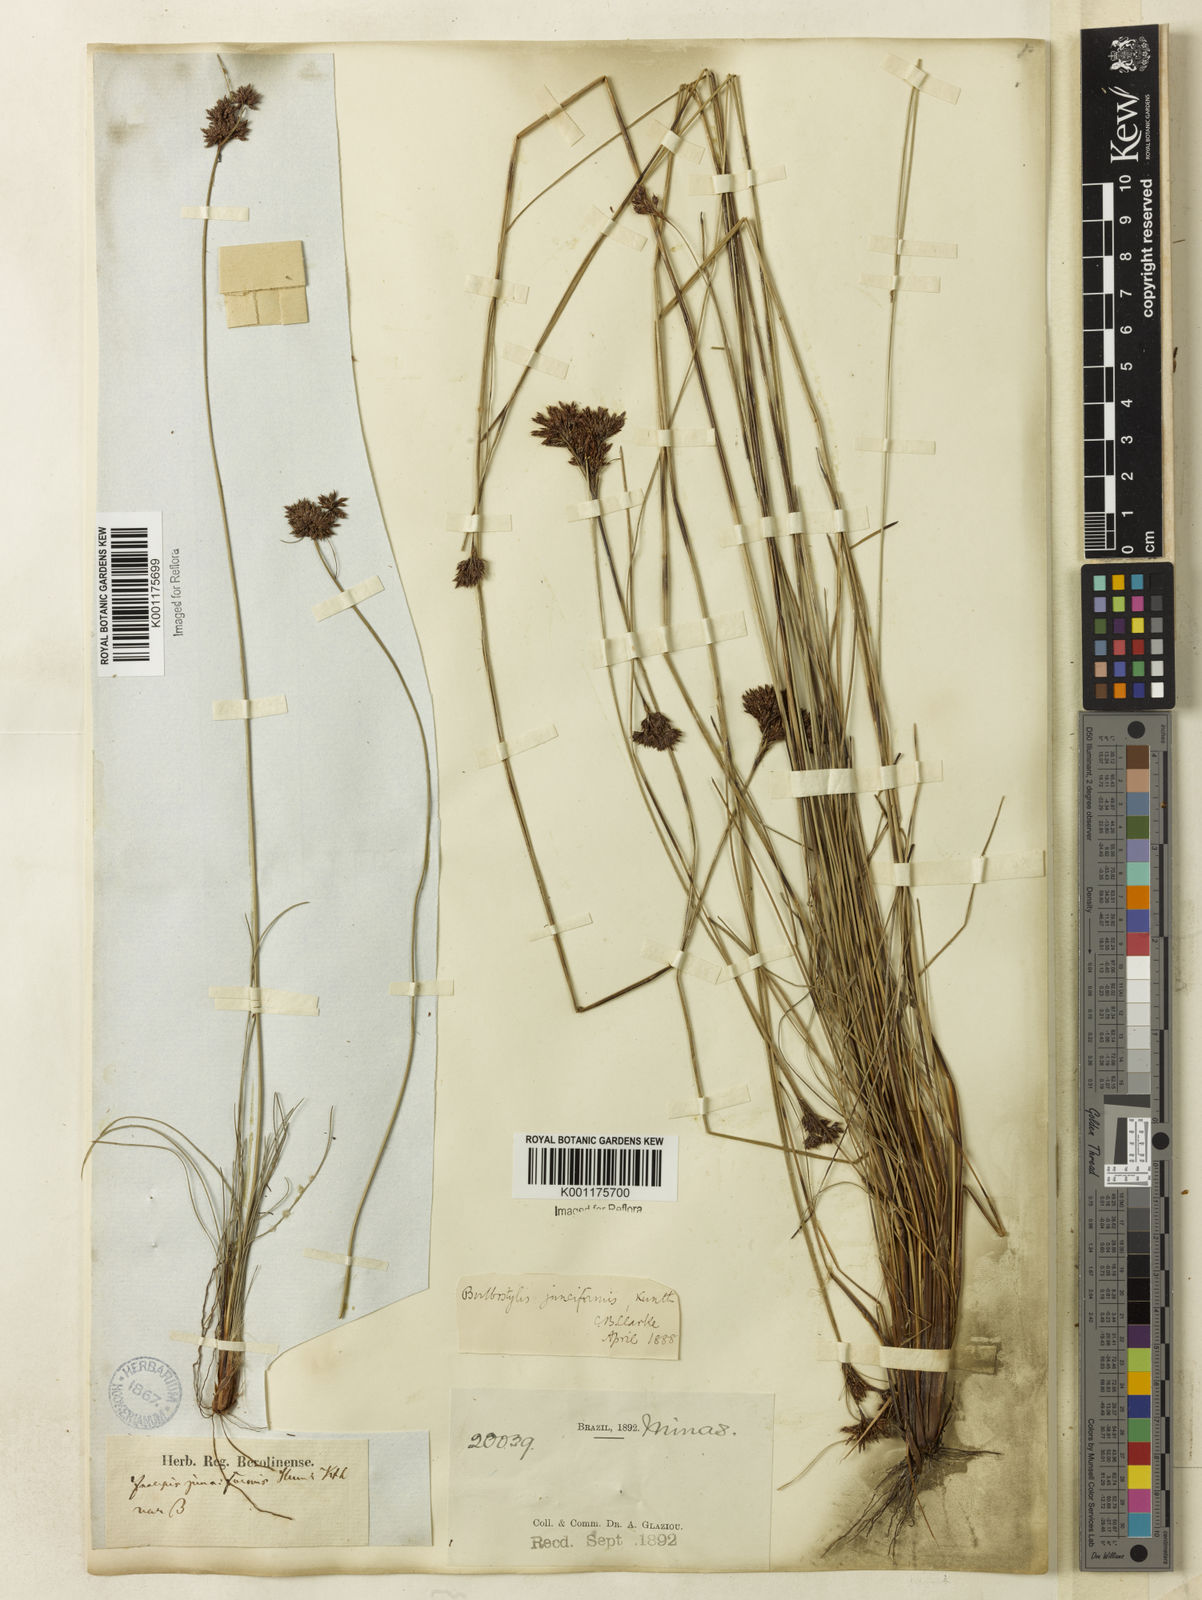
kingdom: Plantae
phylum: Tracheophyta
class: Liliopsida
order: Poales
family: Cyperaceae
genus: Bulbostylis
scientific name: Bulbostylis junciformis
